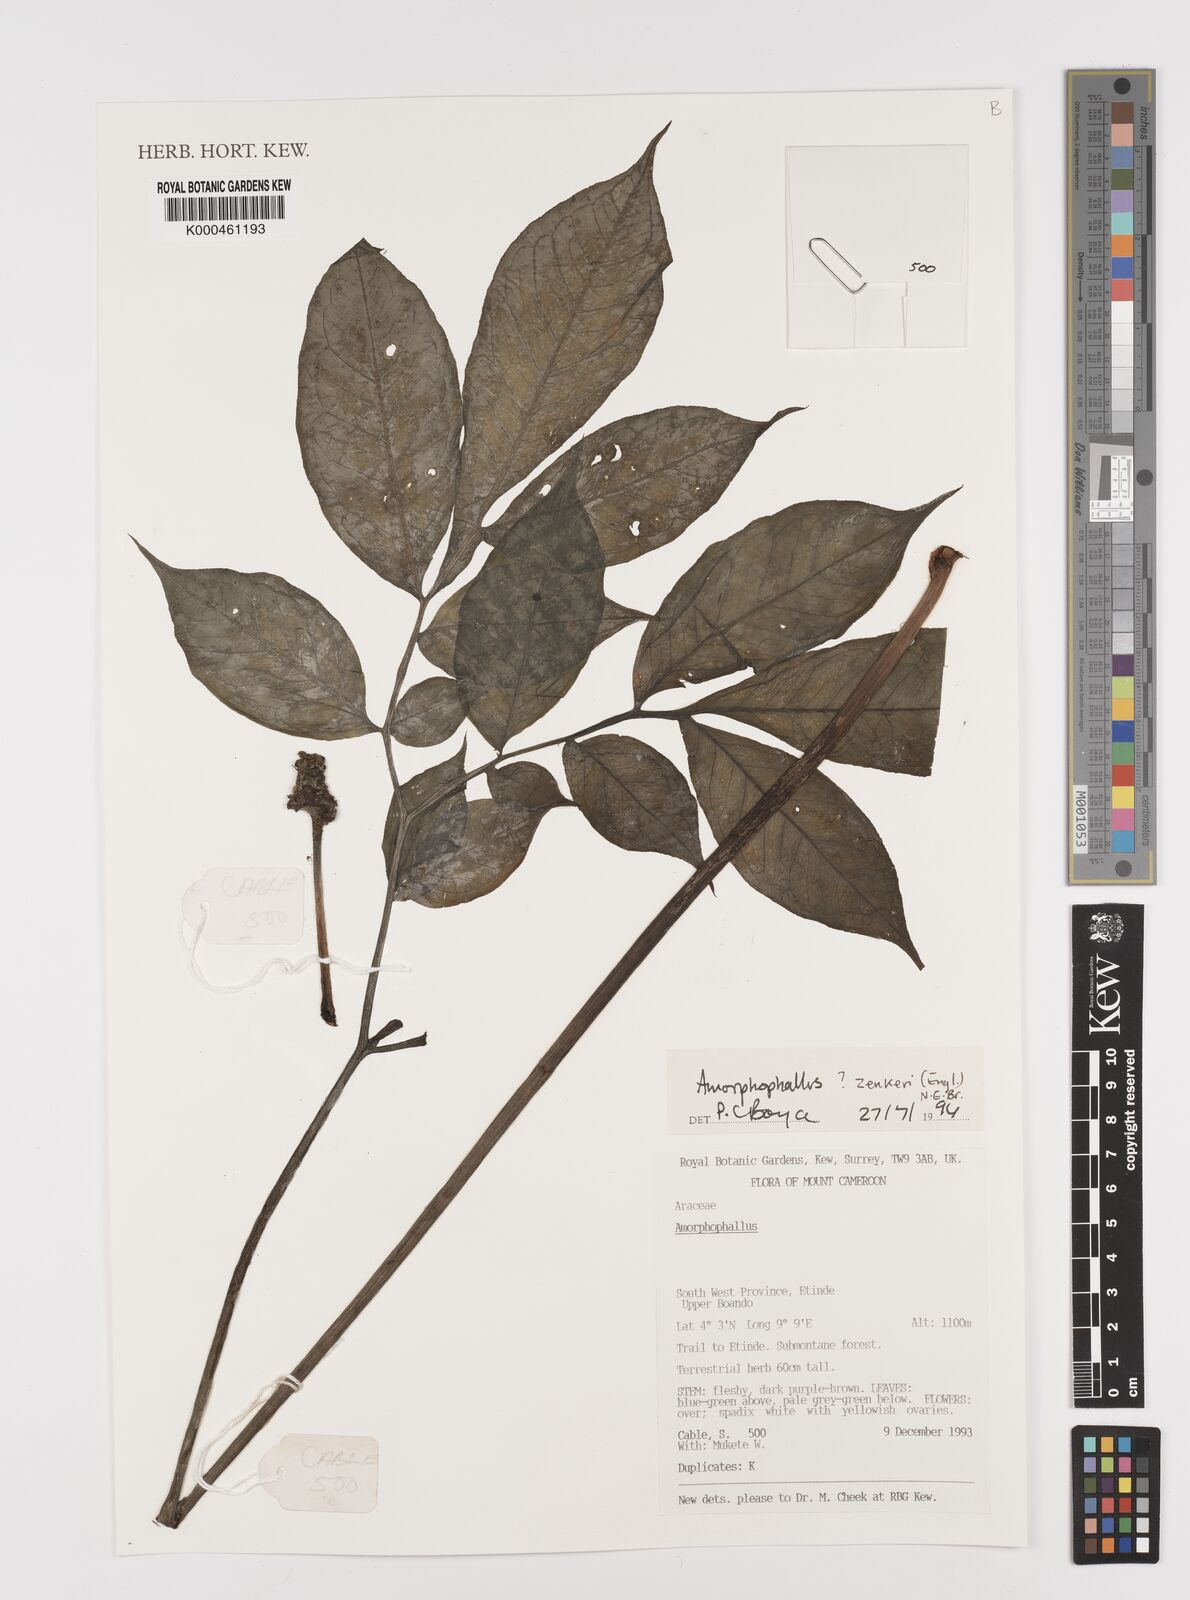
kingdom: Plantae
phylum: Tracheophyta
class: Liliopsida
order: Alismatales
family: Araceae
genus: Amorphophallus
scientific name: Amorphophallus zenkeri
